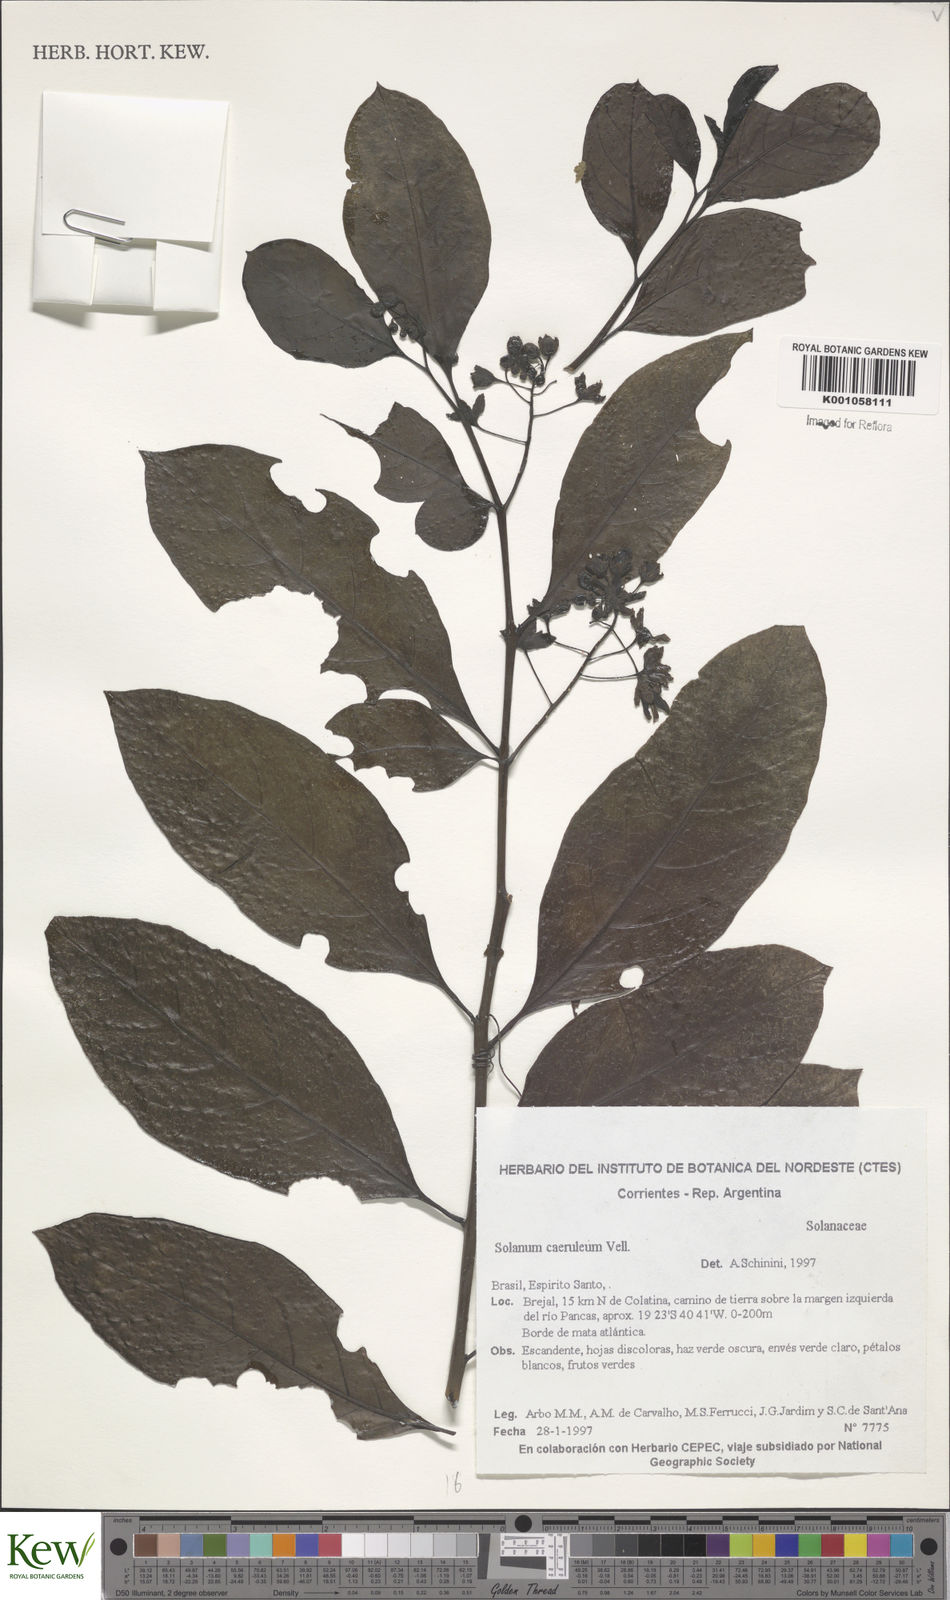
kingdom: Plantae
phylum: Tracheophyta
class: Magnoliopsida
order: Solanales
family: Solanaceae
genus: Solanum
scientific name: Solanum campaniforme
